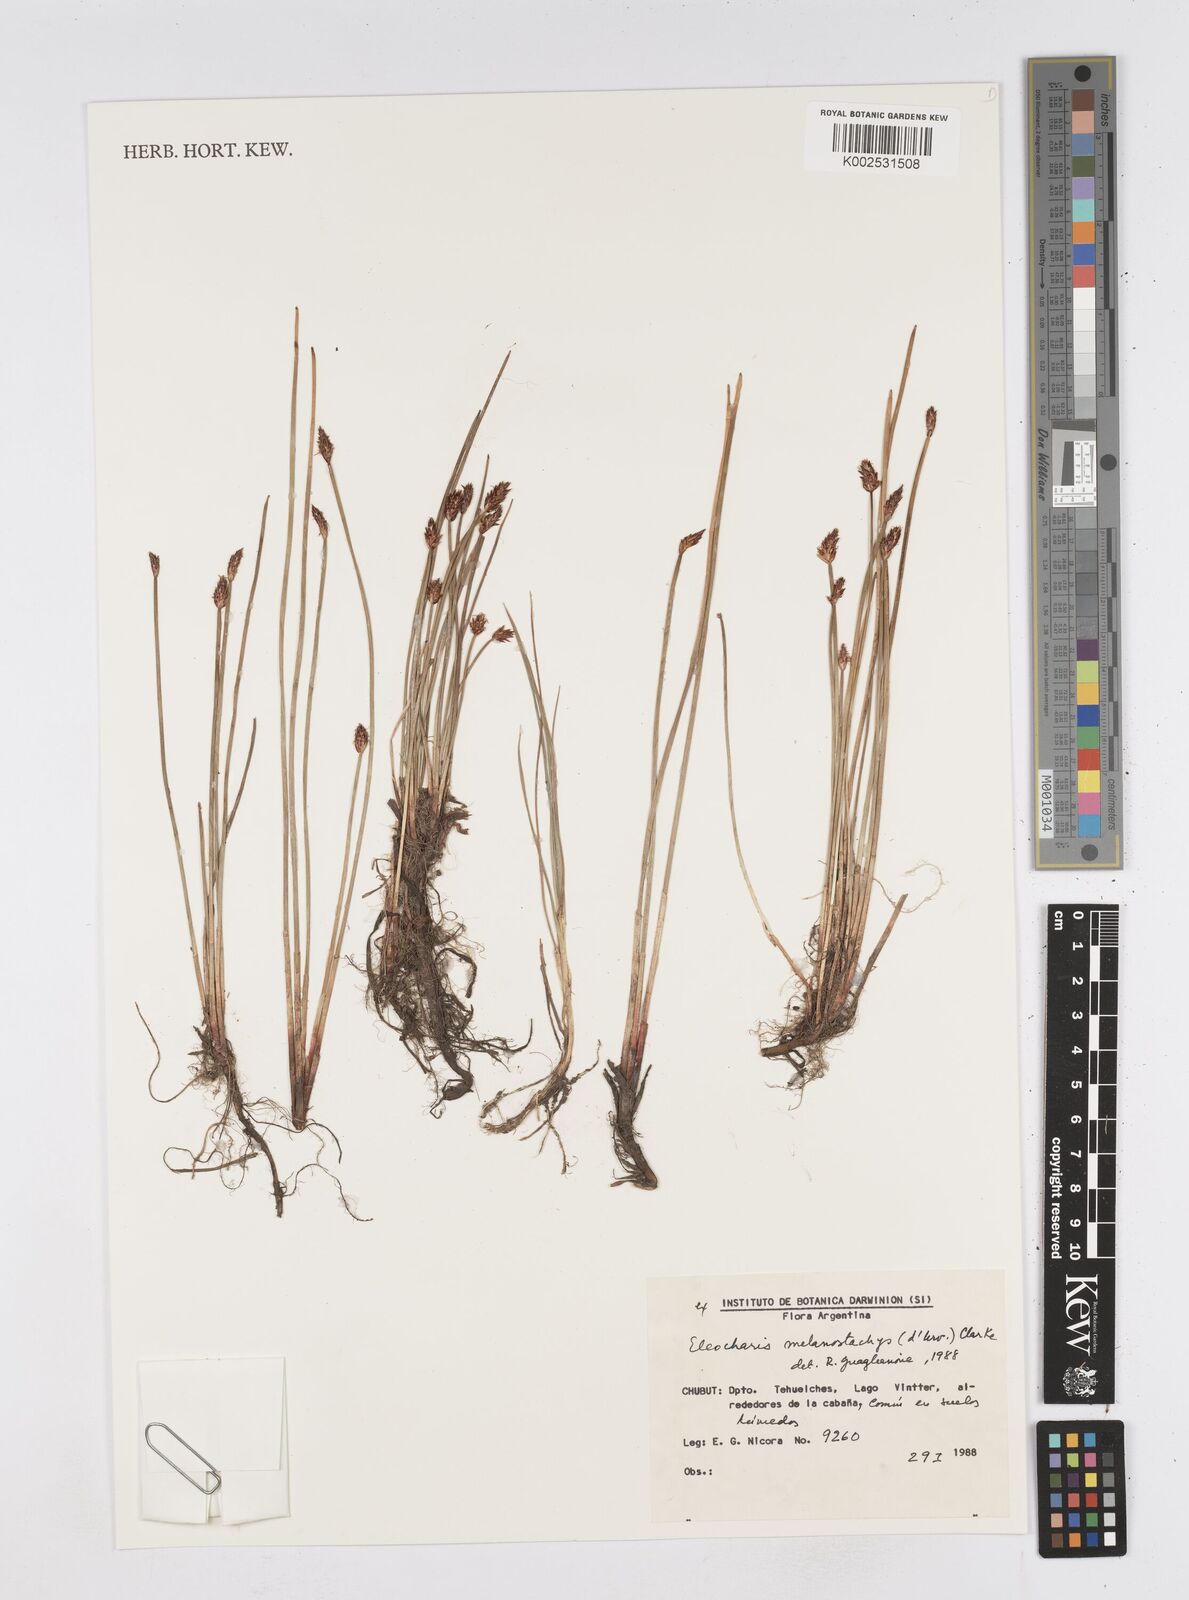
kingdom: Plantae
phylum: Tracheophyta
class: Liliopsida
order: Poales
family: Cyperaceae
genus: Eleocharis
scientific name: Eleocharis melanostachys
